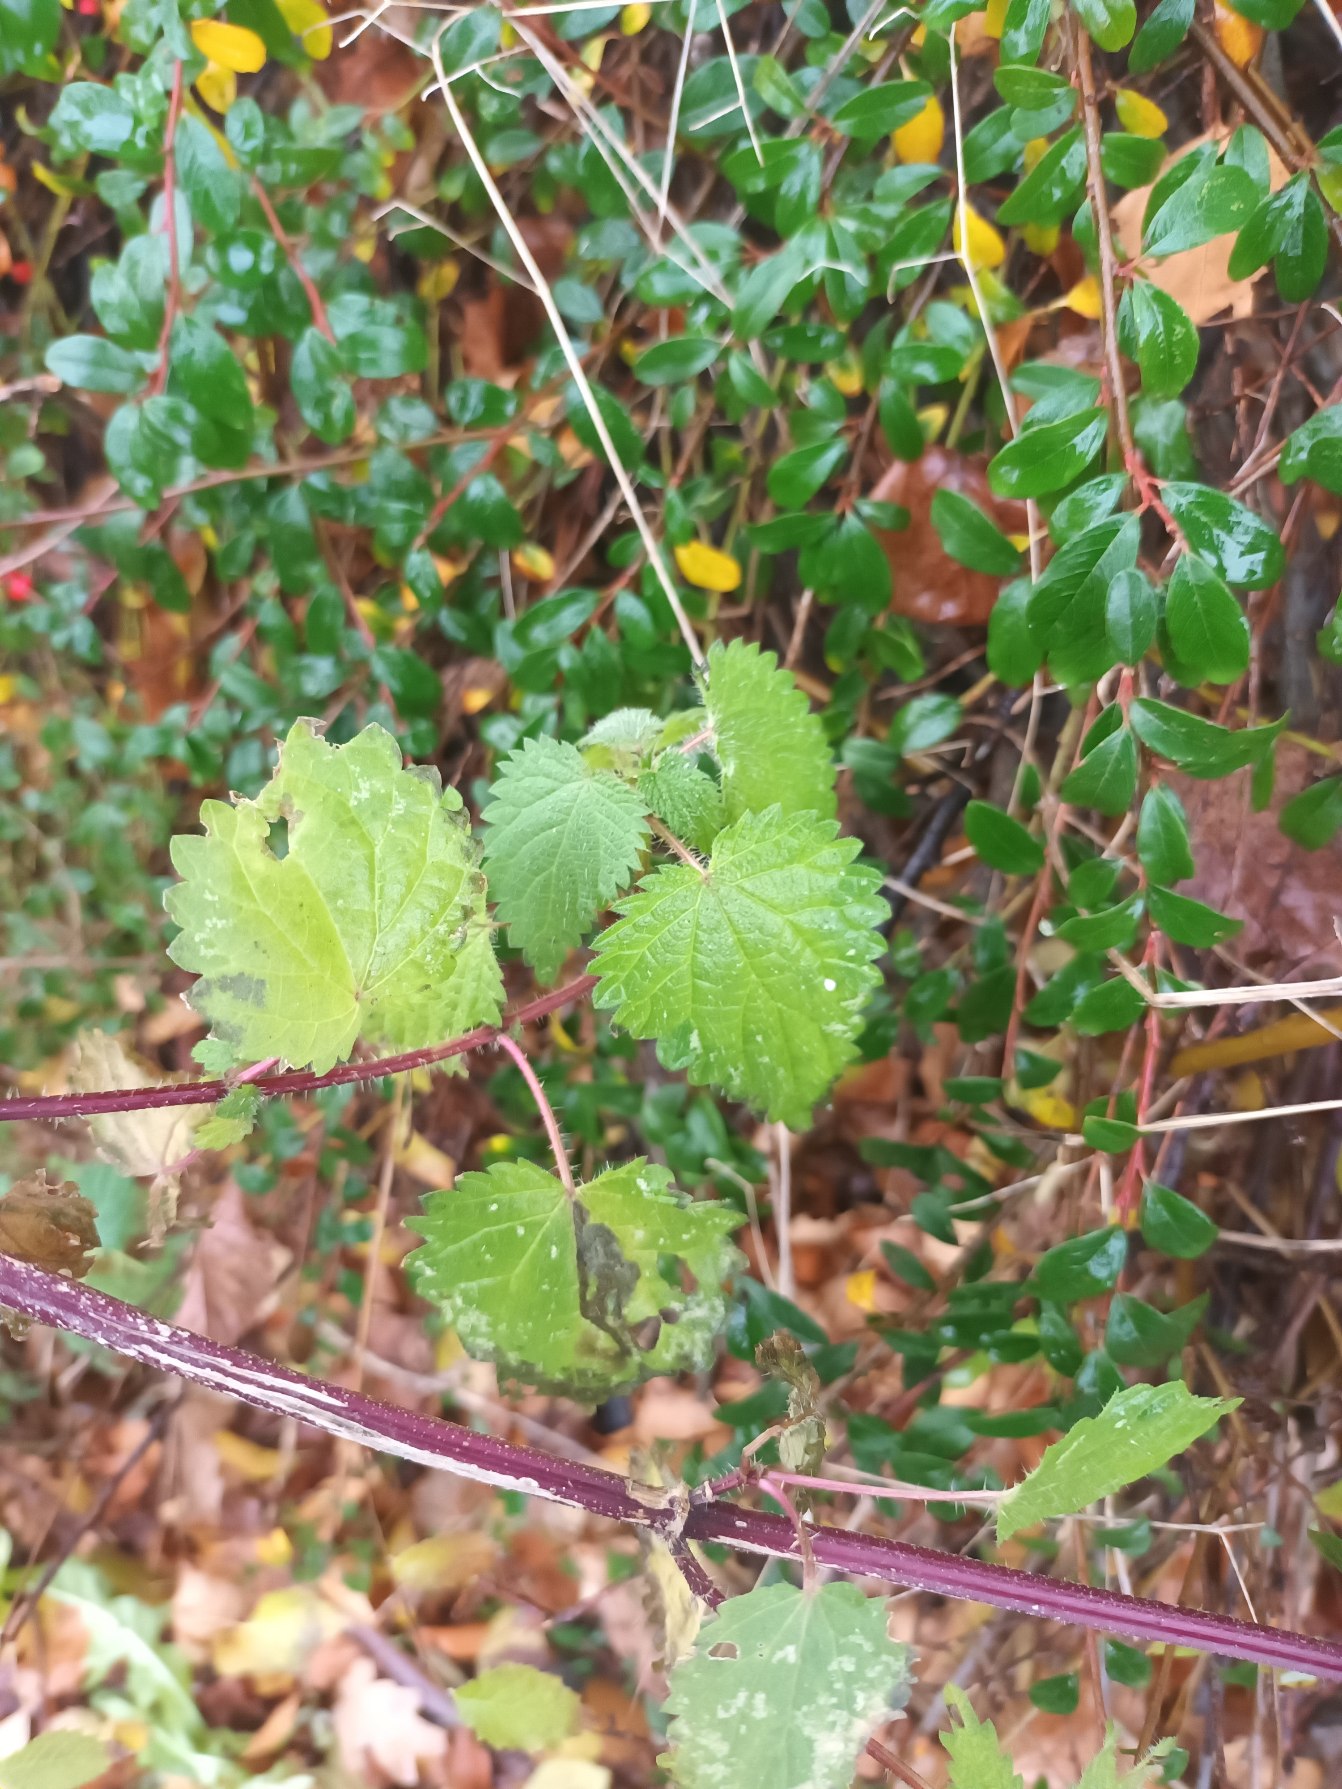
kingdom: Plantae
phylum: Tracheophyta
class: Magnoliopsida
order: Rosales
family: Urticaceae
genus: Urtica
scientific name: Urtica dioica
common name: Stor nælde
